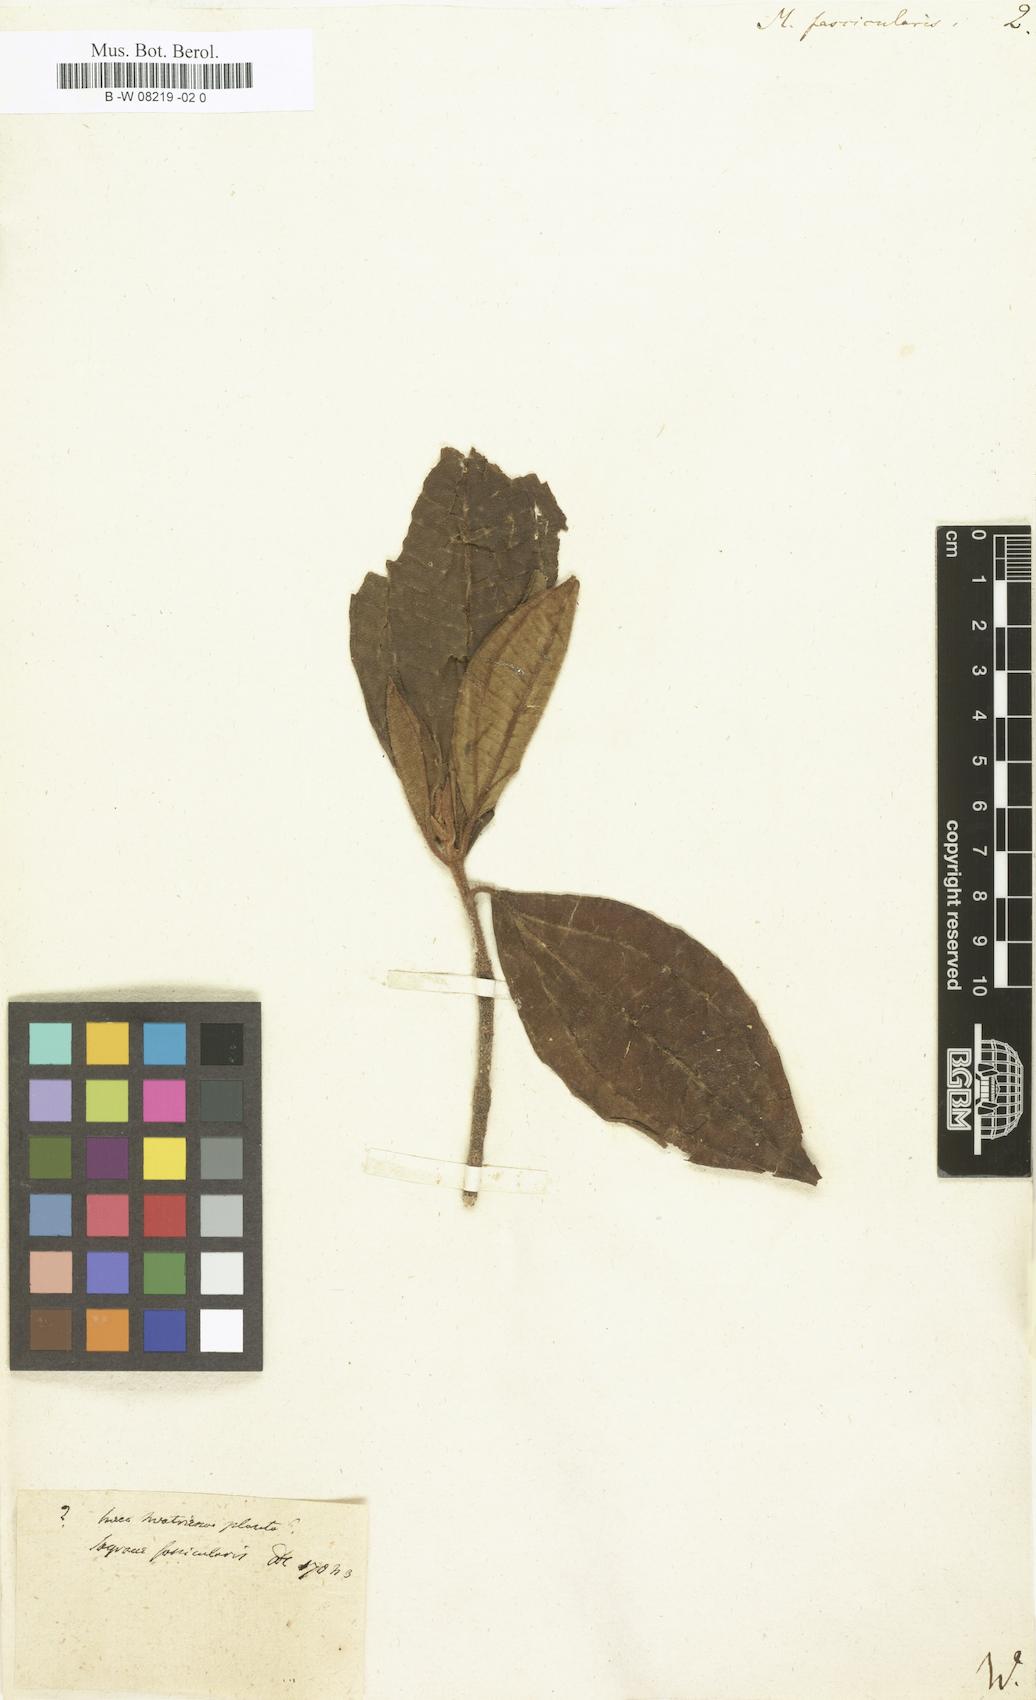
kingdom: Plantae
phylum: Tracheophyta
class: Magnoliopsida
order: Myrtales
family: Melastomataceae
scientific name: Melastomataceae
